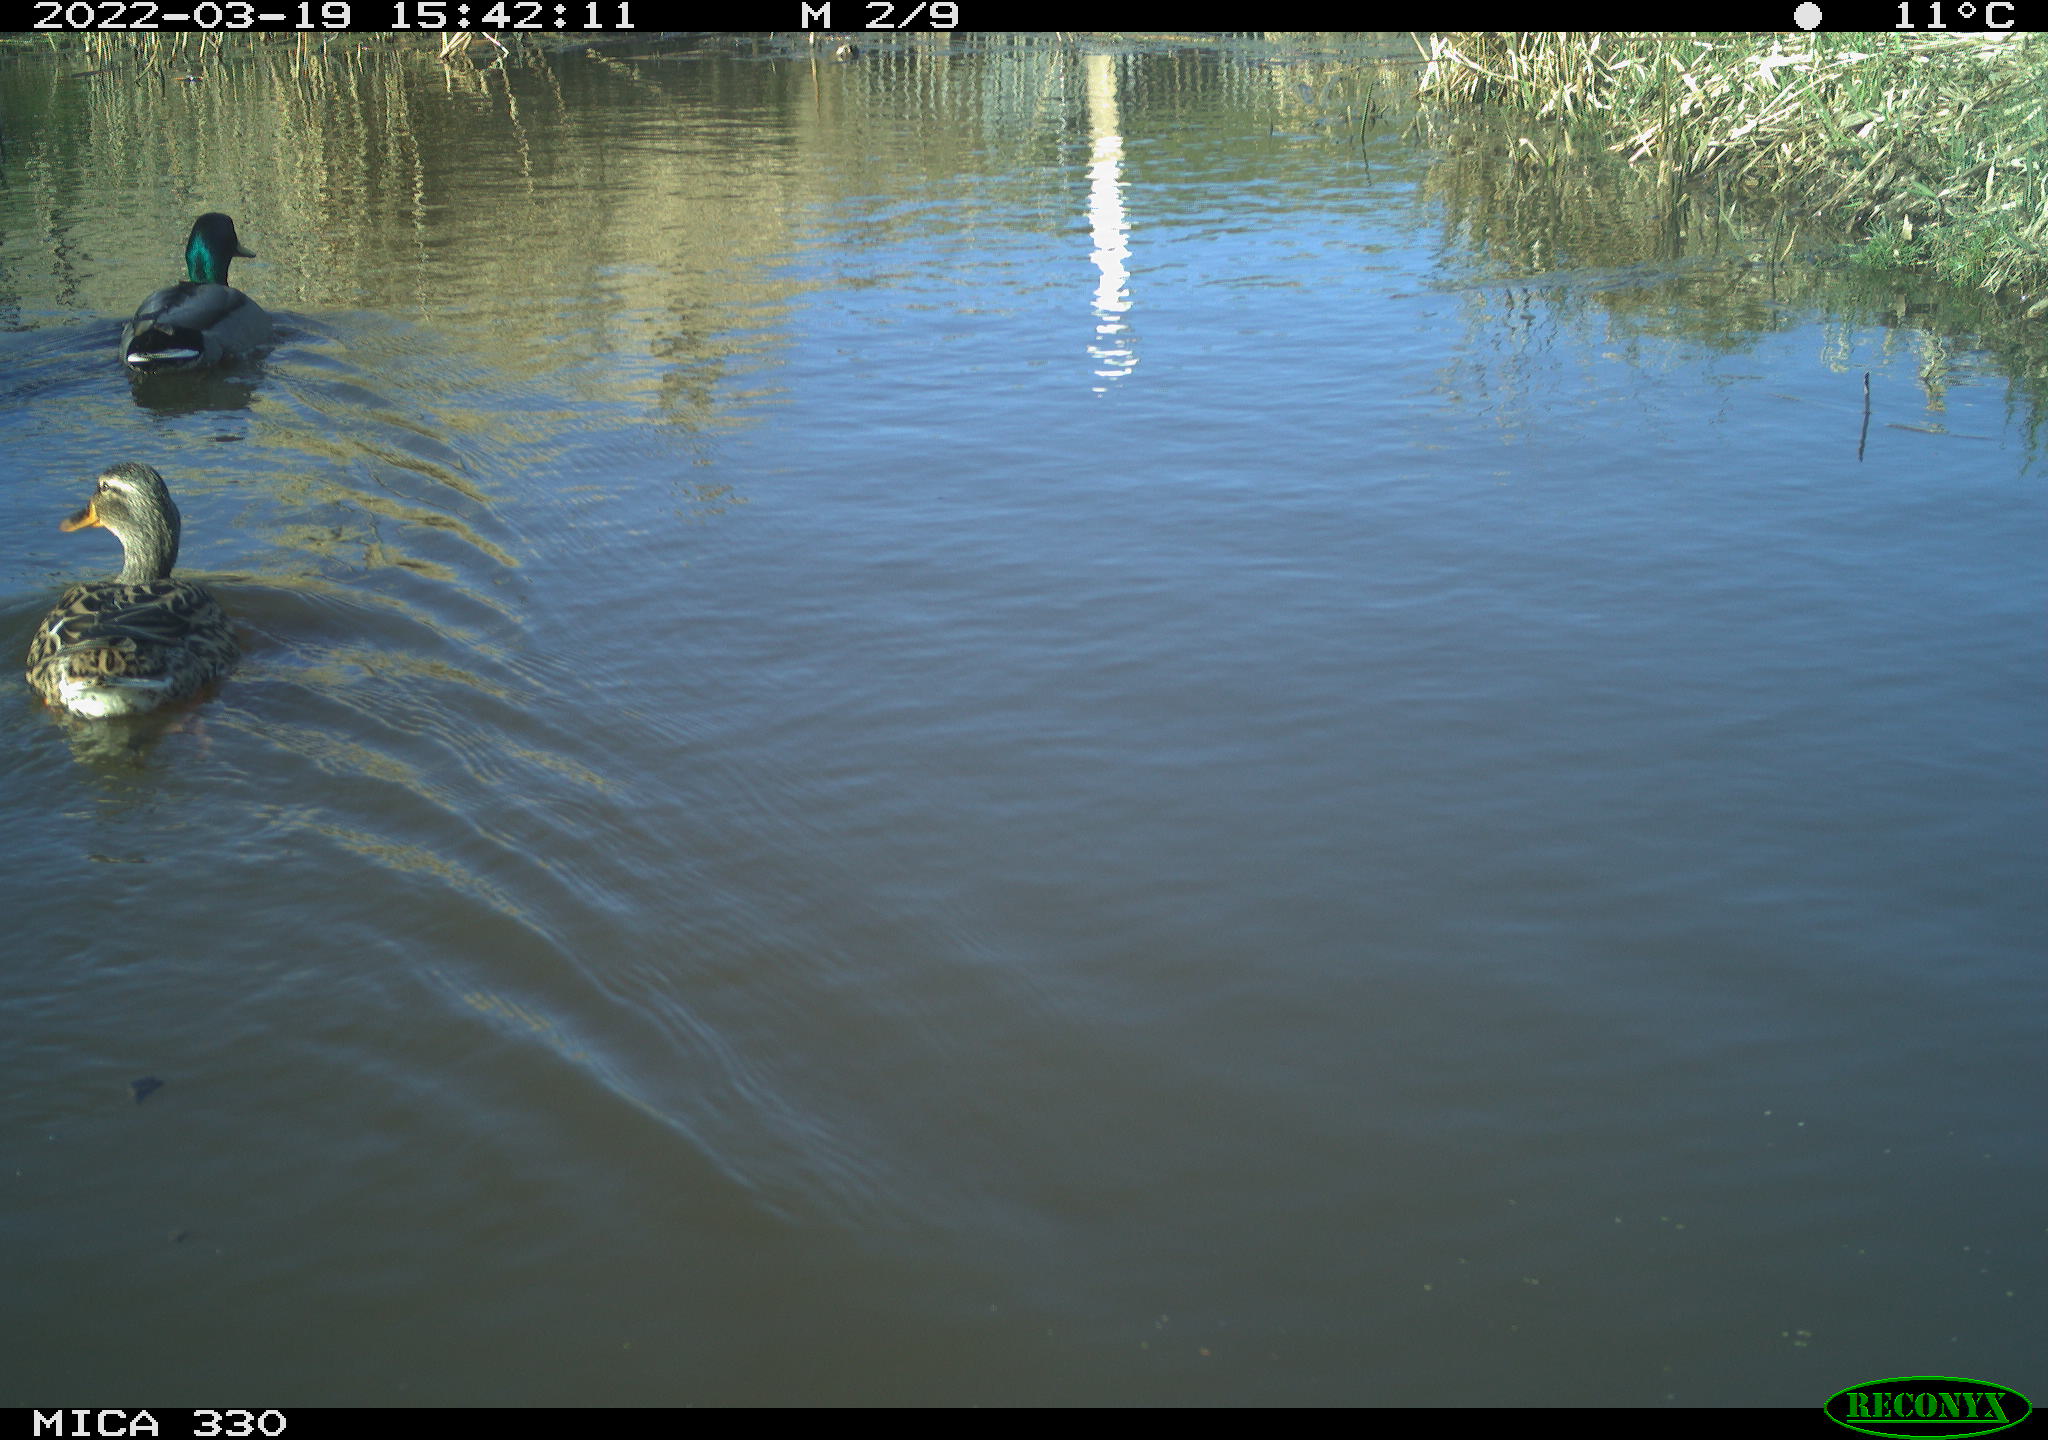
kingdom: Animalia
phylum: Chordata
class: Aves
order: Anseriformes
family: Anatidae
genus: Anas
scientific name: Anas platyrhynchos
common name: Mallard
